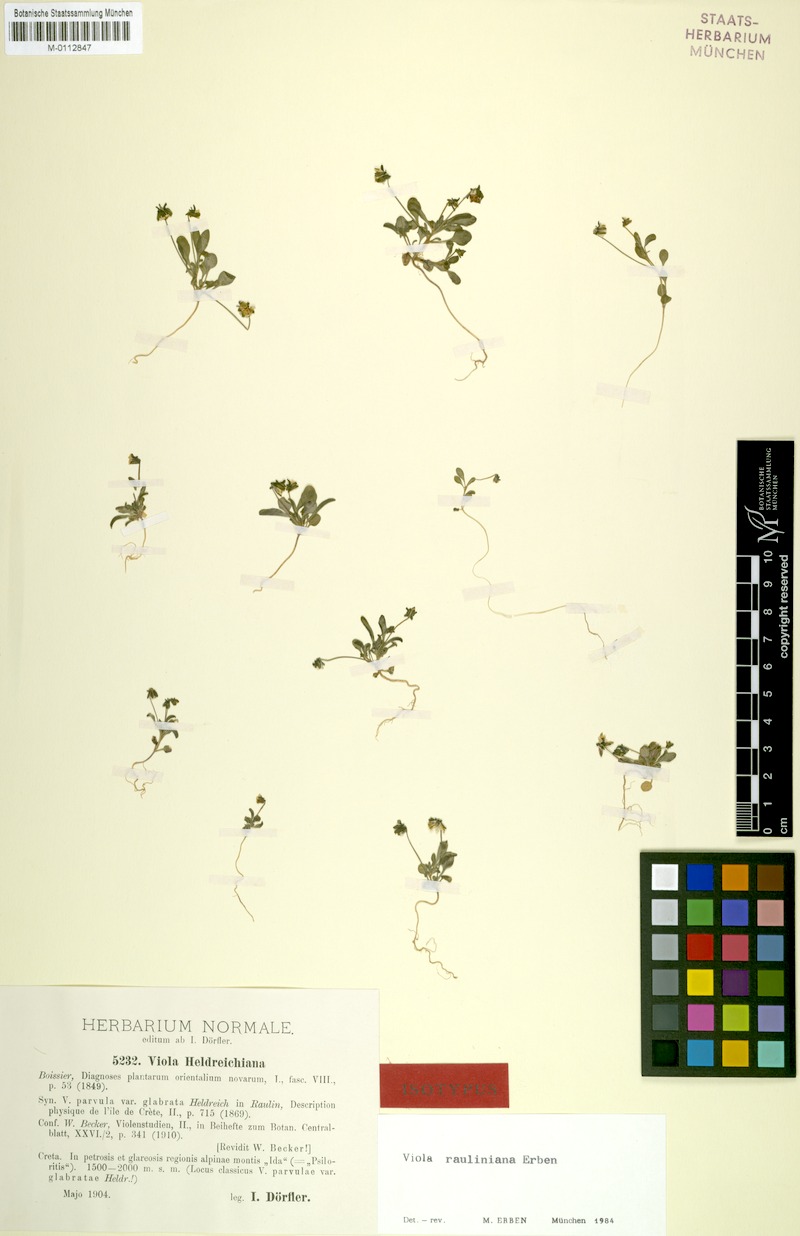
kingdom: Plantae
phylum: Tracheophyta
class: Magnoliopsida
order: Malpighiales
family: Violaceae
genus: Viola
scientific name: Viola rauliniana
